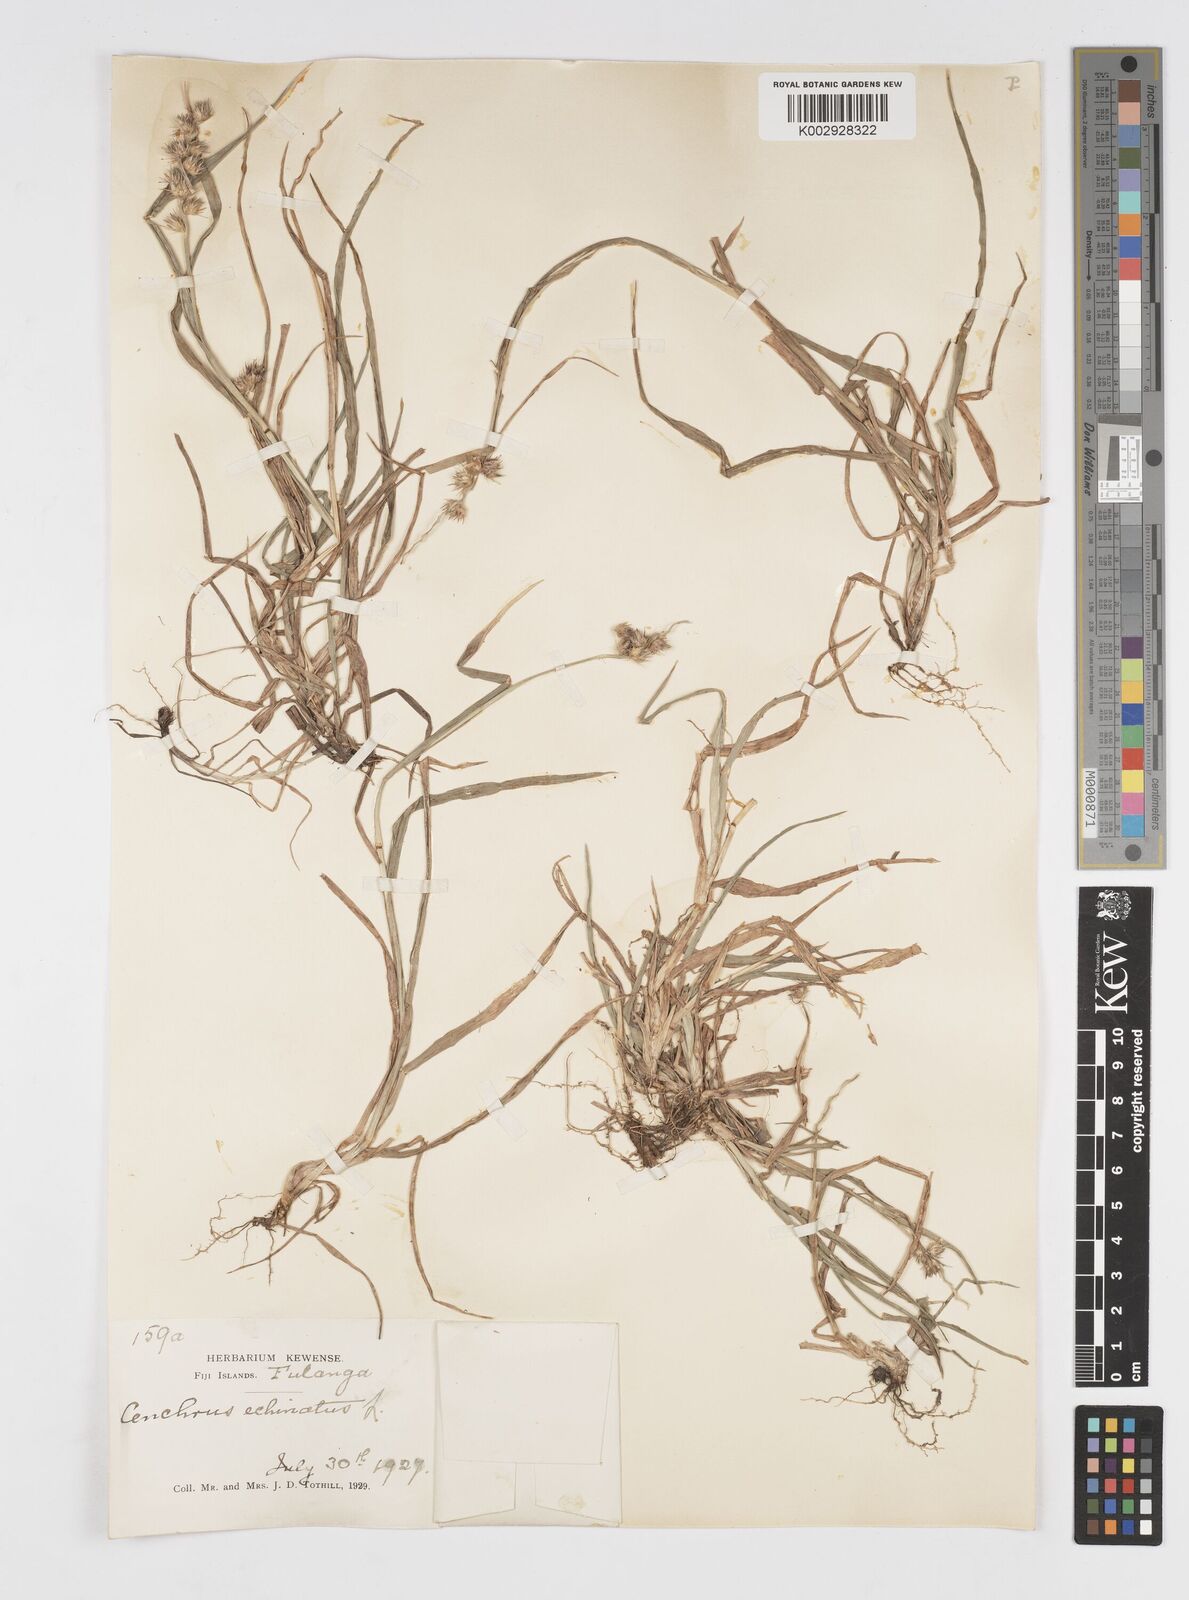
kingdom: Plantae
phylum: Tracheophyta
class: Liliopsida
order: Poales
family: Poaceae
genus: Cenchrus
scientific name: Cenchrus echinatus
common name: Southern sandbur
